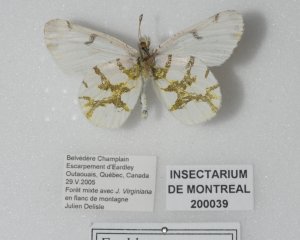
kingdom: Animalia
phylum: Arthropoda
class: Insecta
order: Lepidoptera
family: Pieridae
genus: Euchloe
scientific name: Euchloe olympia
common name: Olympia Marble
